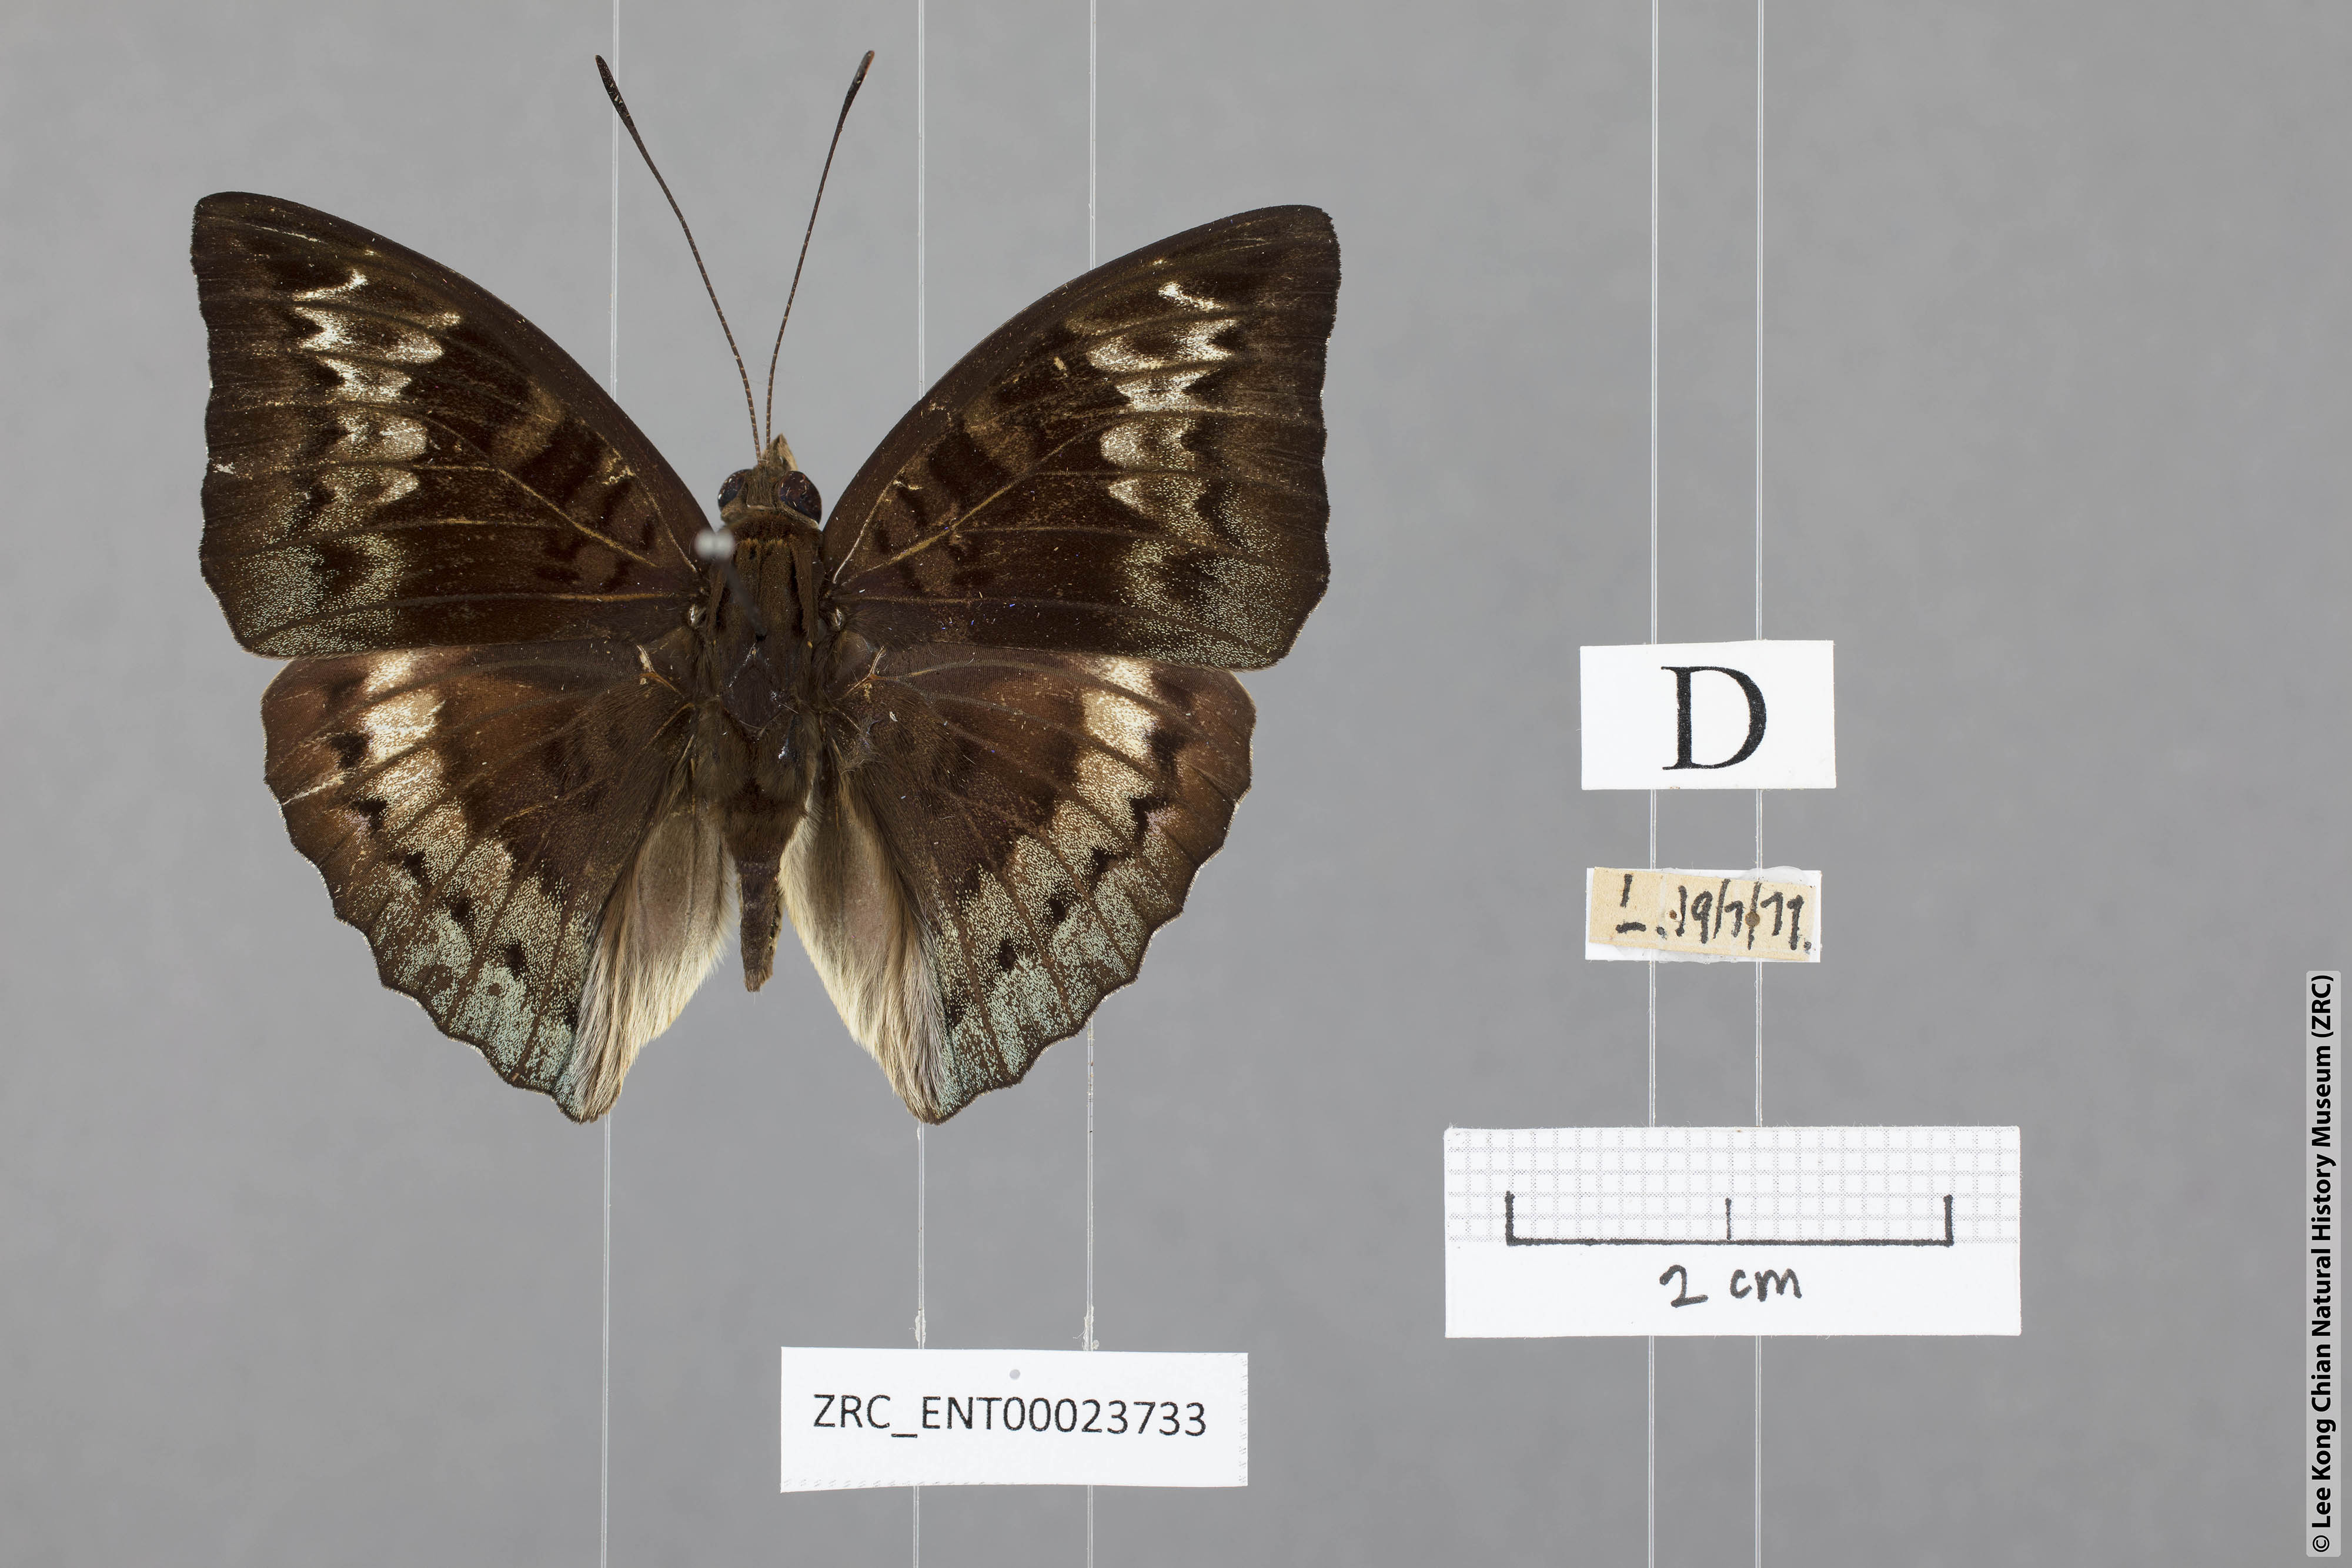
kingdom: Animalia
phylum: Arthropoda
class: Insecta
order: Lepidoptera
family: Nymphalidae
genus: Euthalia
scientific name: Euthalia monina
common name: Powdered baron
